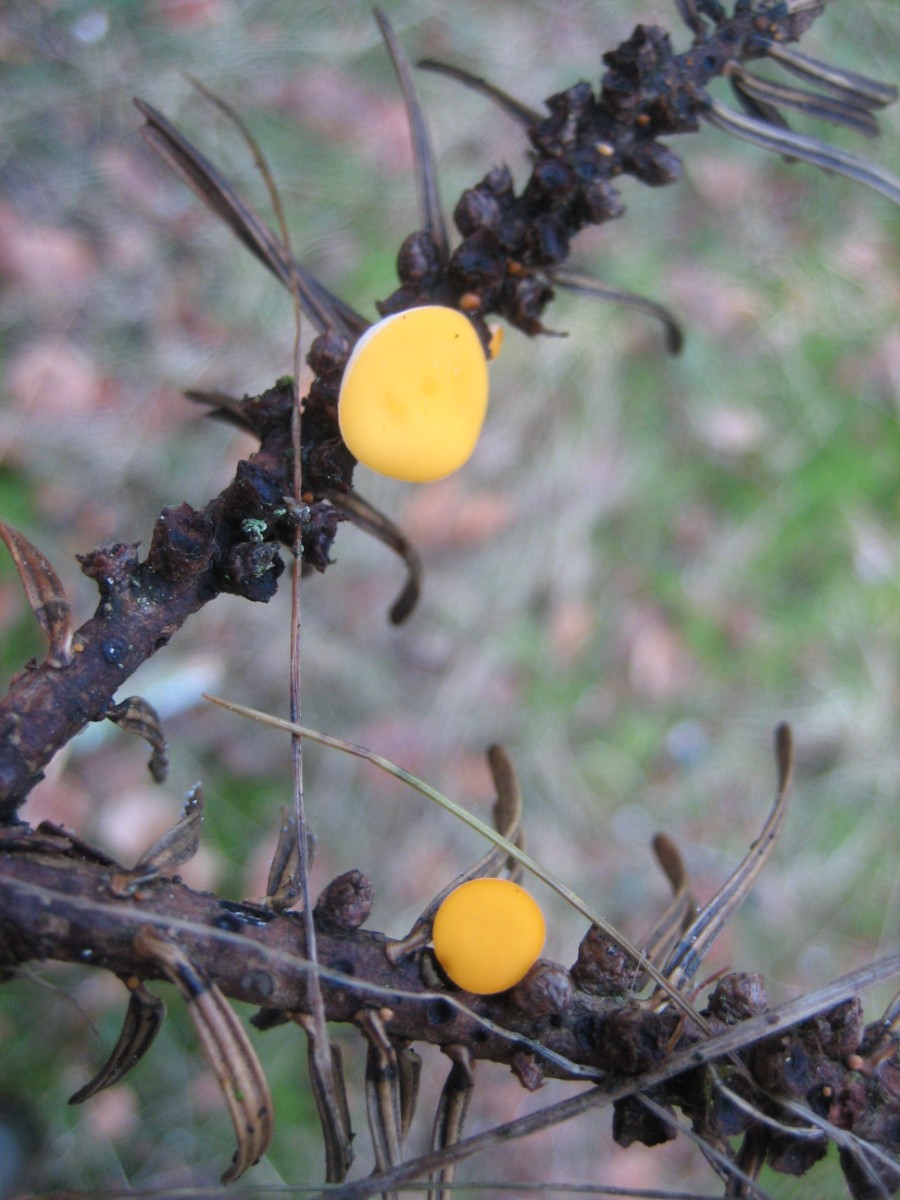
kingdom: Fungi
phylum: Ascomycota
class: Pezizomycetes
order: Pezizales
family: Sarcoscyphaceae
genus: Pithya
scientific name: Pithya vulgaris
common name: stor dukatbæger
